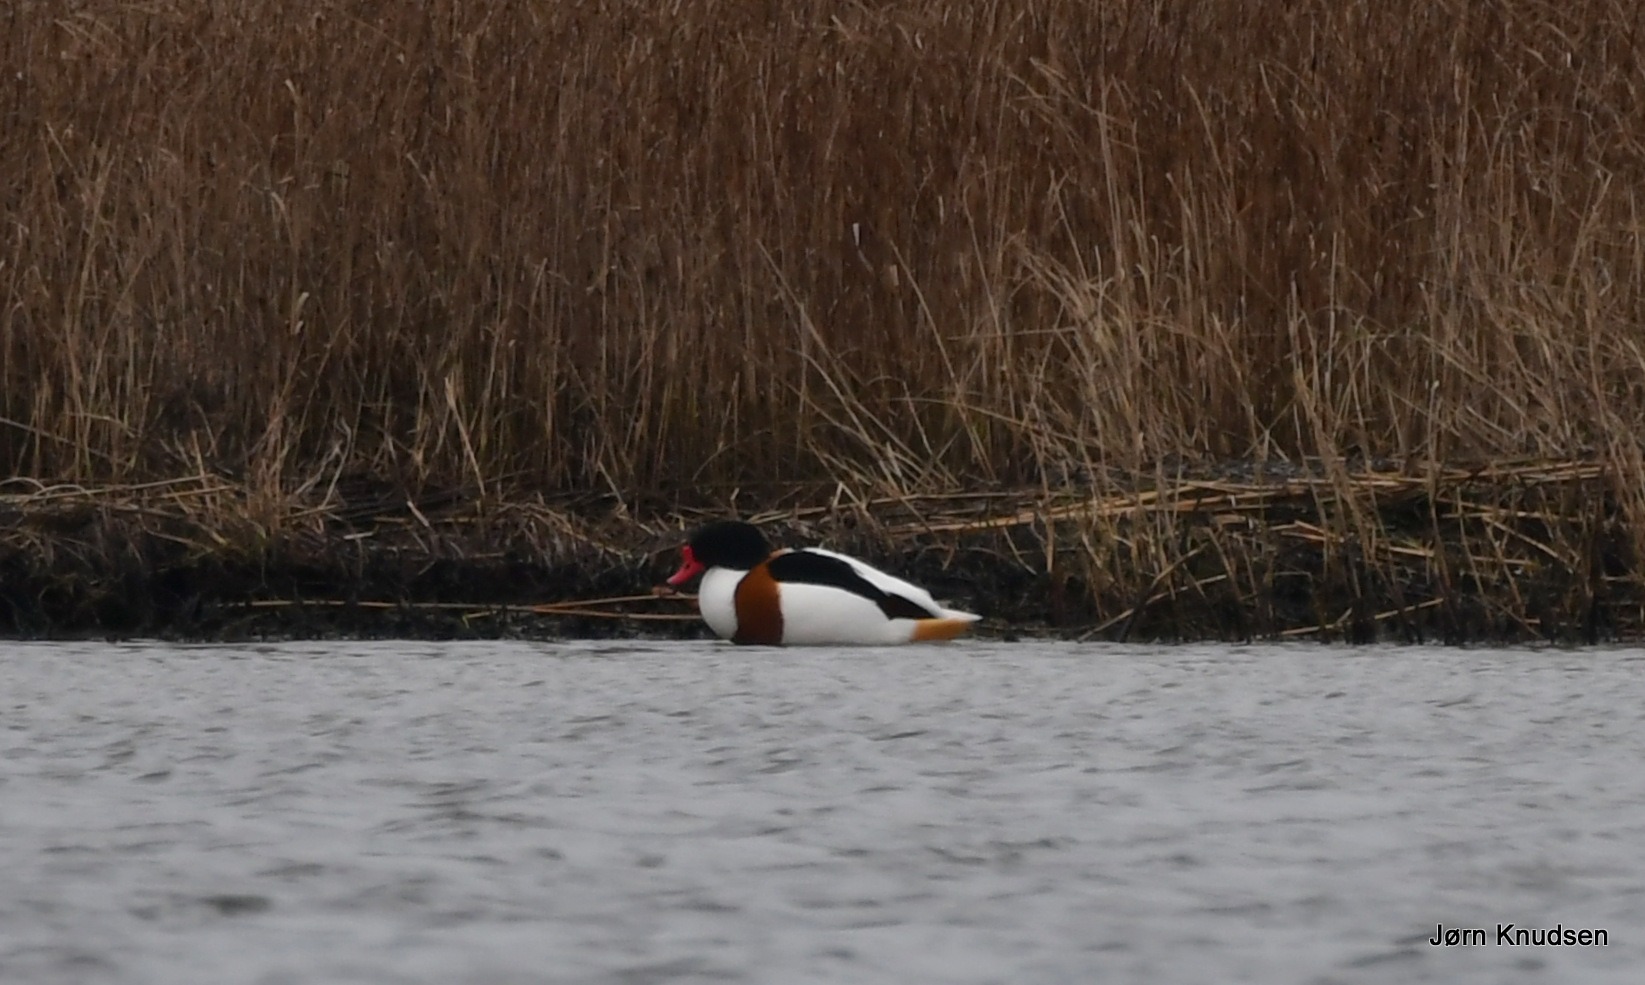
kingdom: Animalia
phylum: Chordata
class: Aves
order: Anseriformes
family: Anatidae
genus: Tadorna
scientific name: Tadorna tadorna
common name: Gravand
